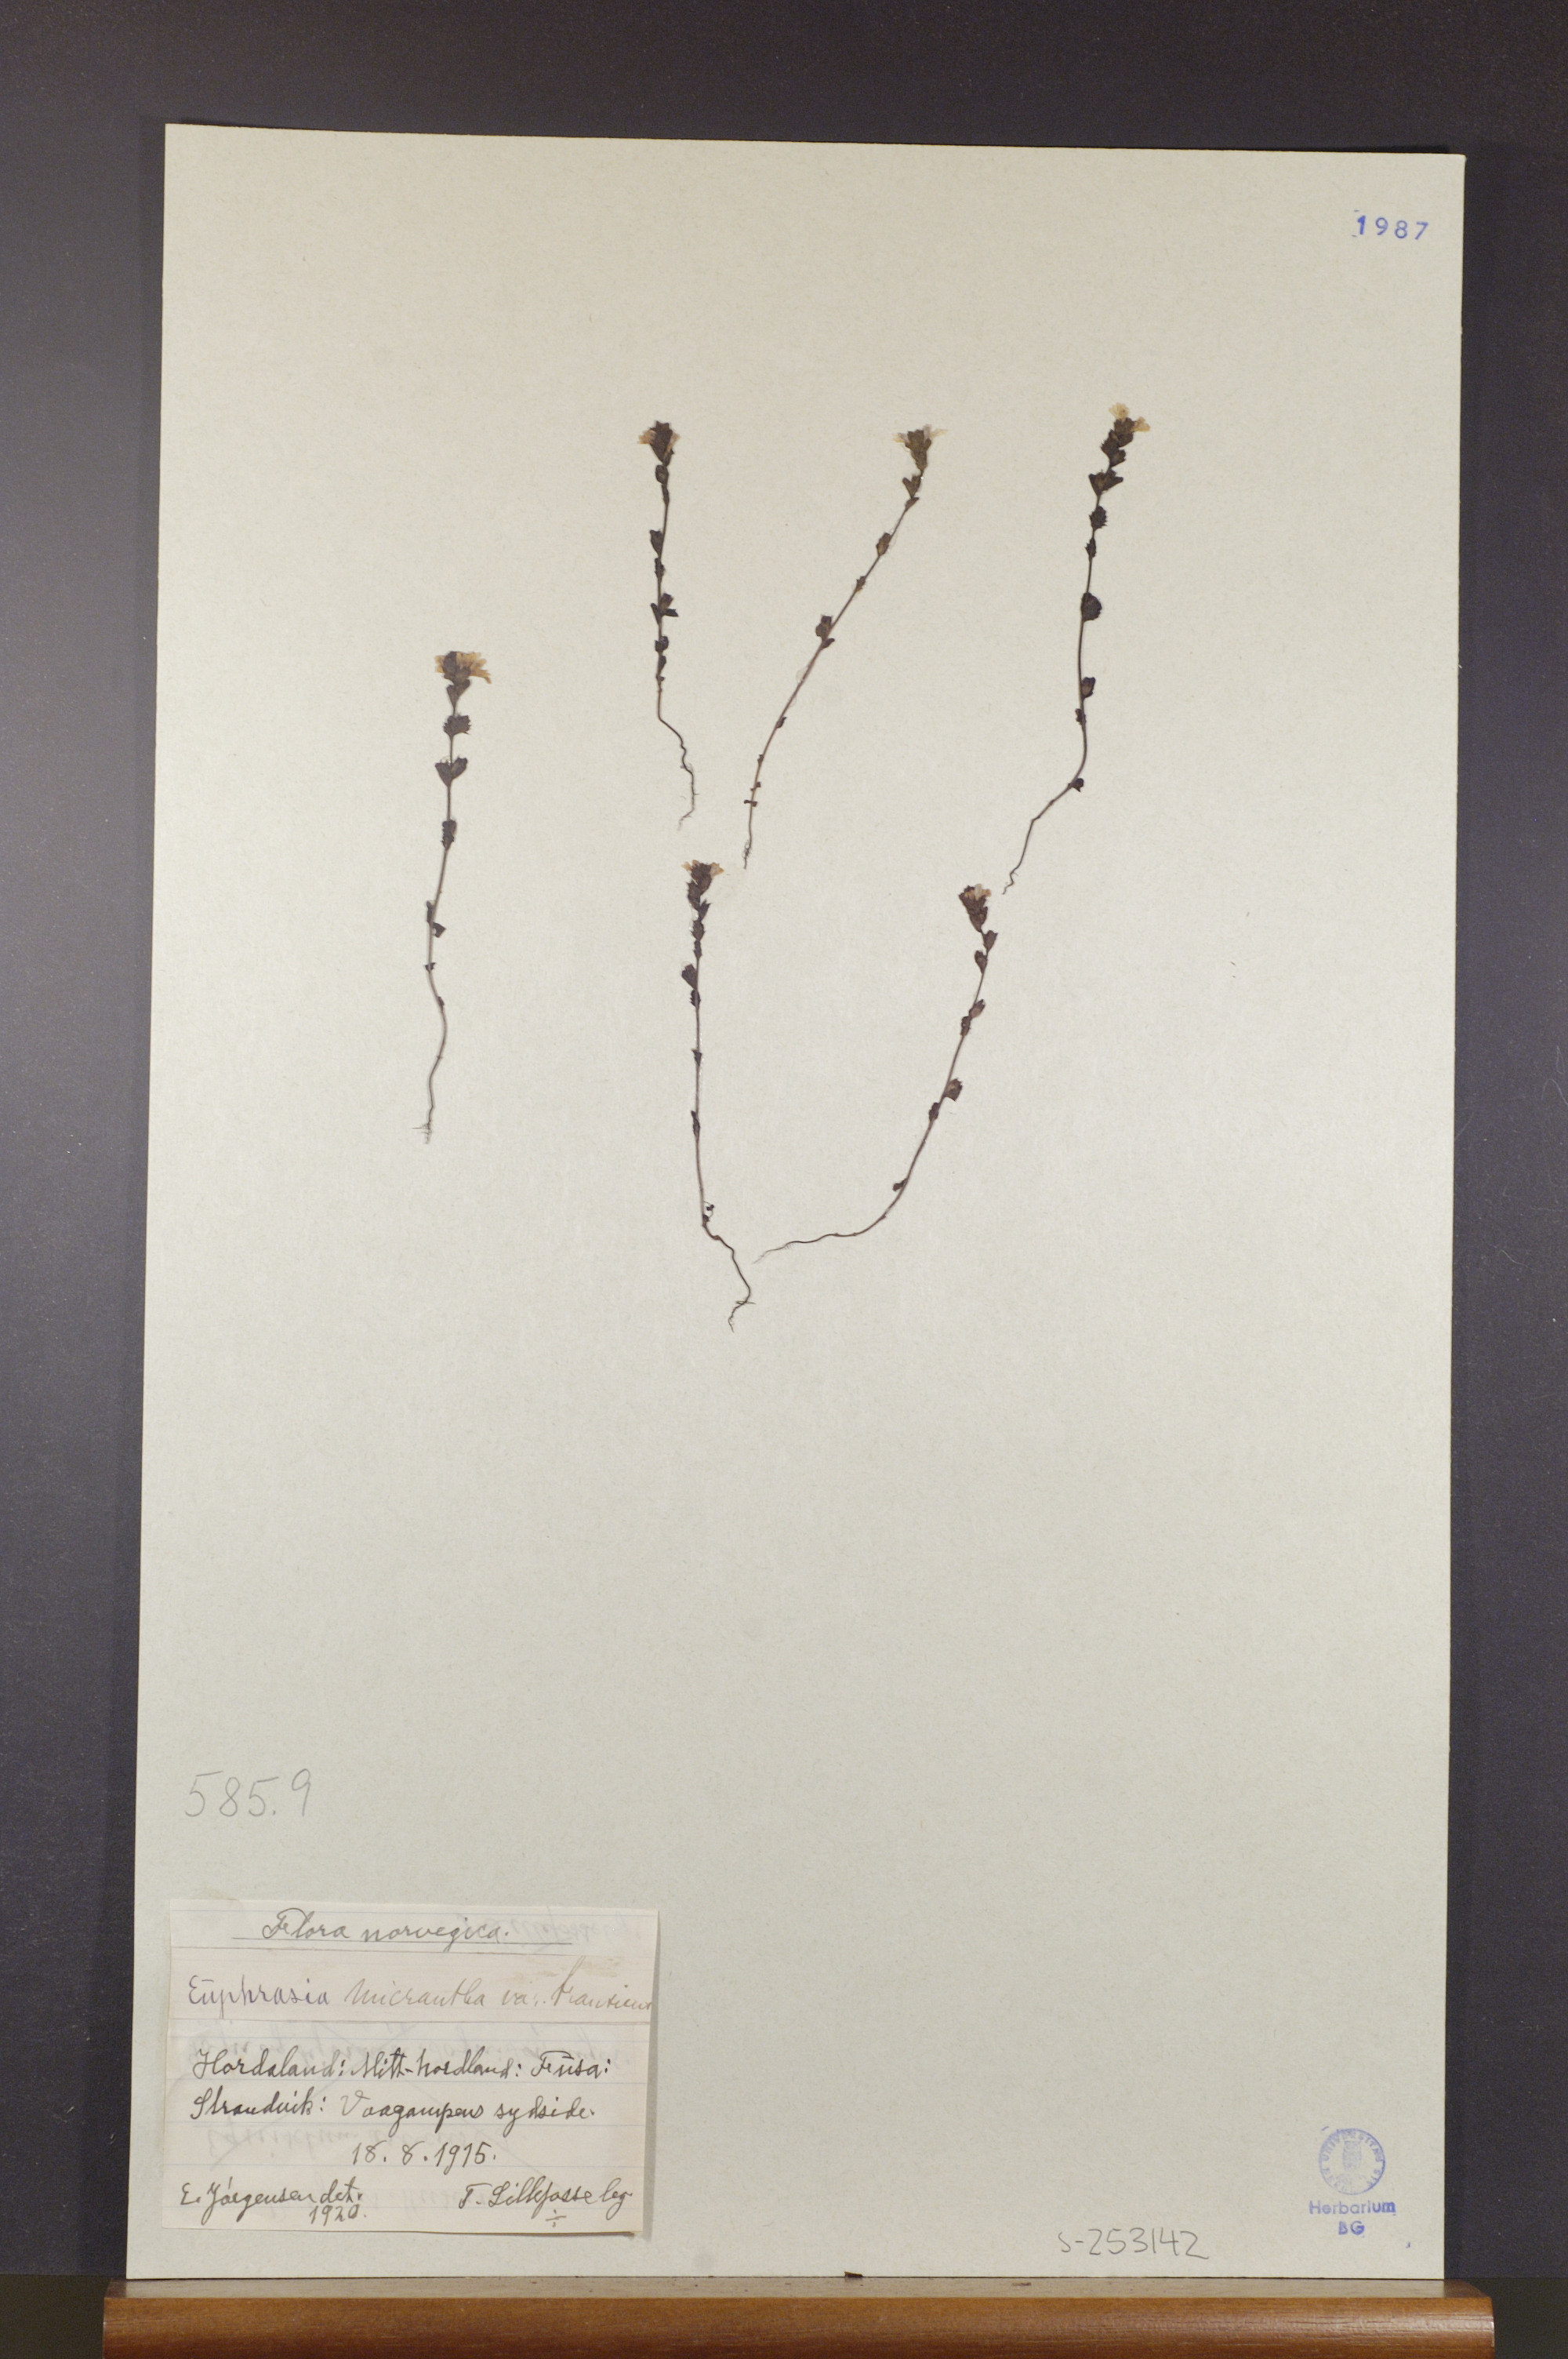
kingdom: Plantae
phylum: Tracheophyta
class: Magnoliopsida
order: Lamiales
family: Orobanchaceae
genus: Euphrasia
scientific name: Euphrasia micrantha
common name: Northern eyebright
